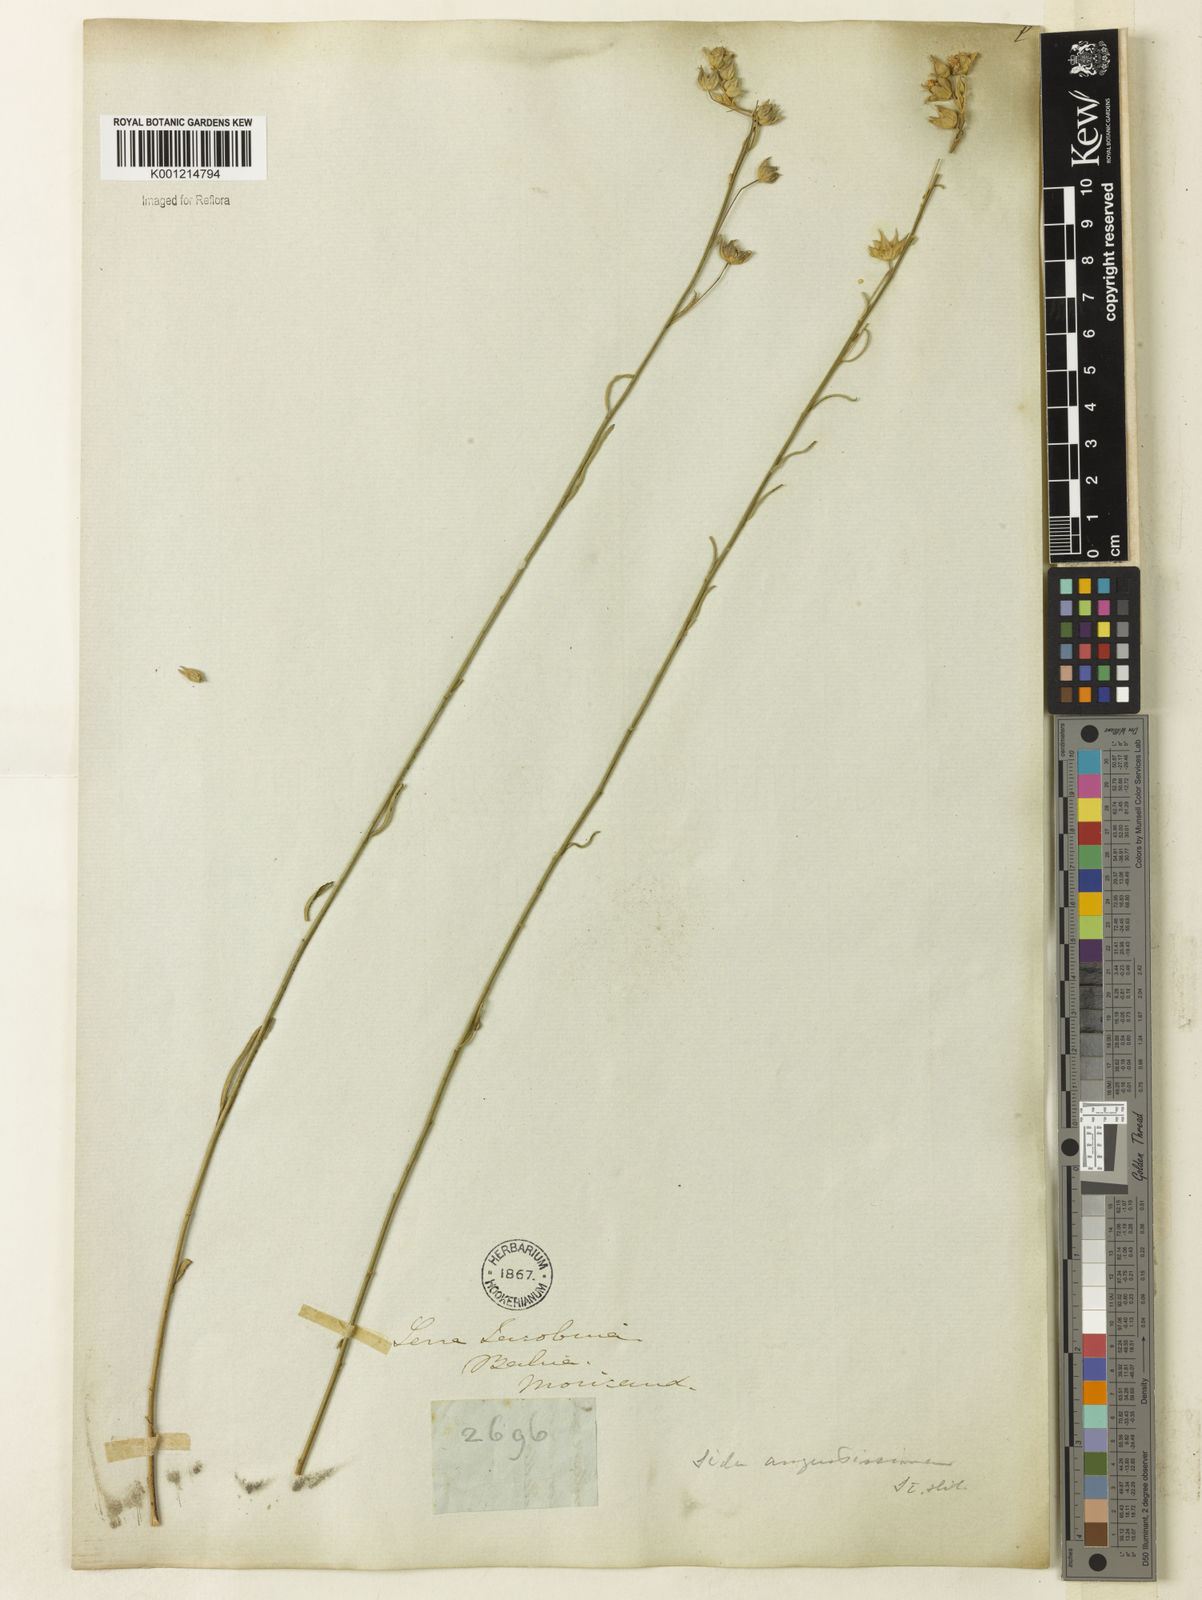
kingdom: Plantae
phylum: Tracheophyta
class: Magnoliopsida
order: Malvales
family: Malvaceae
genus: Sida
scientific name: Sida angustissima
